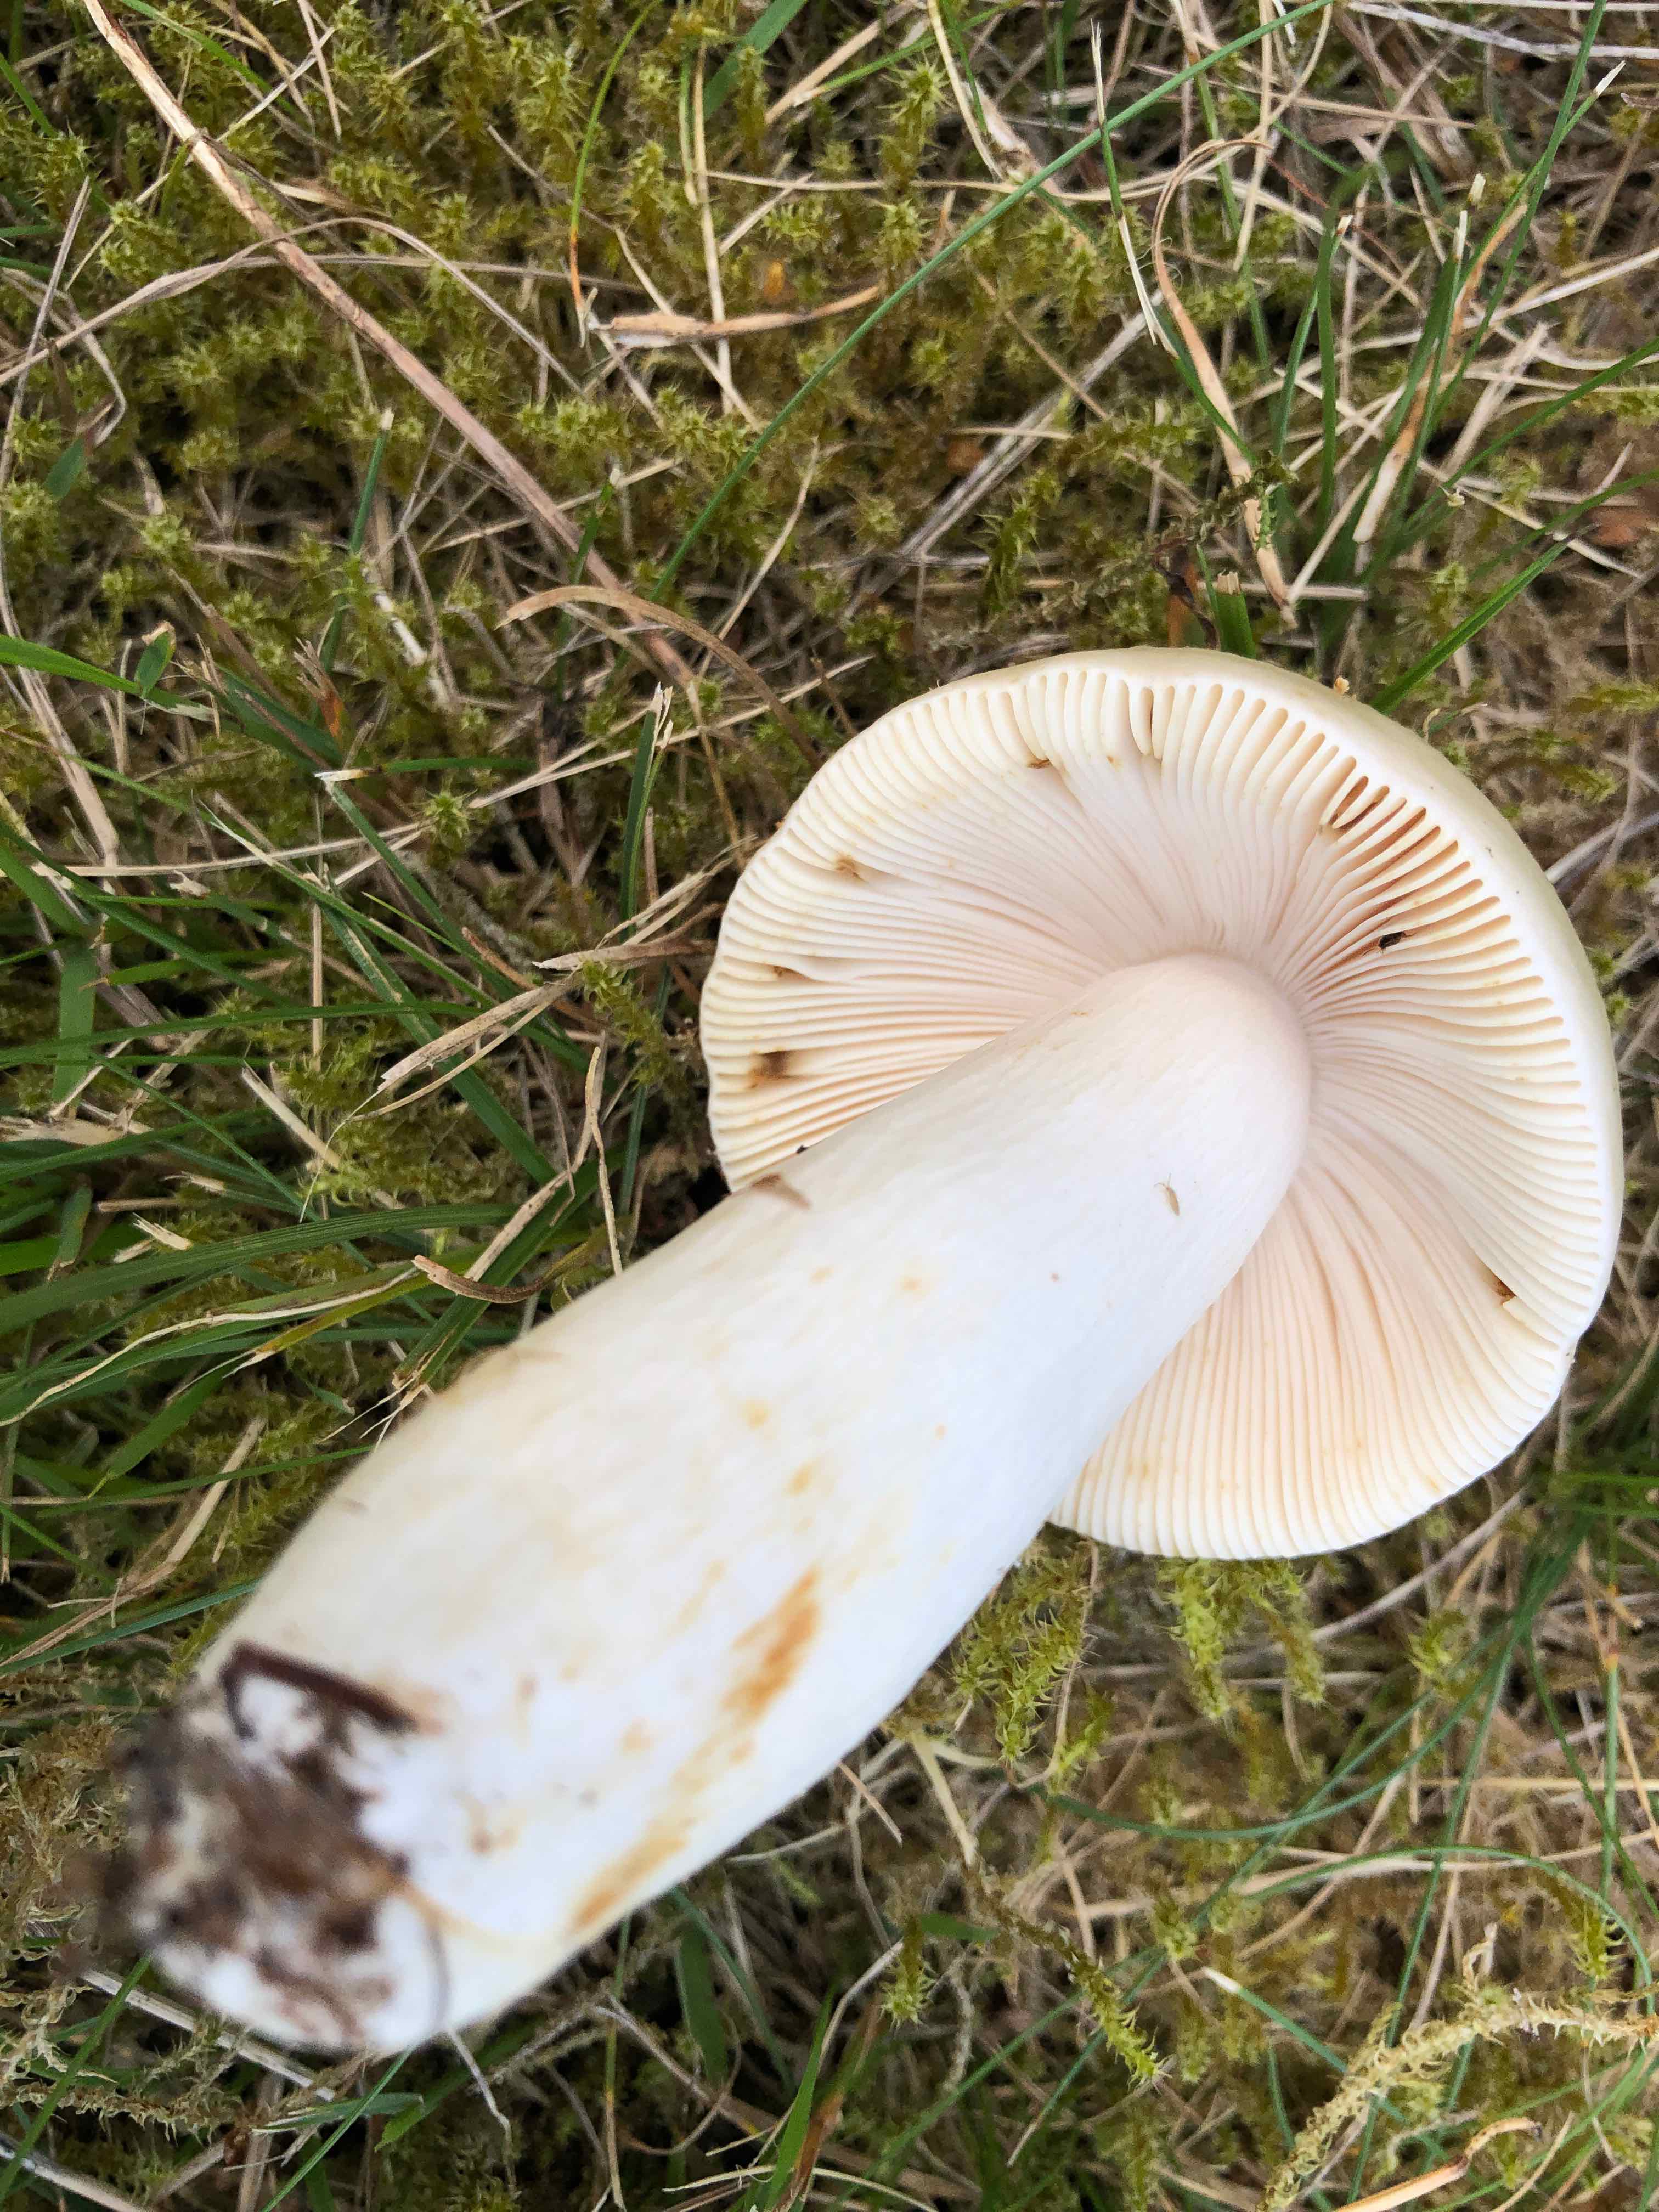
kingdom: Fungi
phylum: Basidiomycota
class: Agaricomycetes
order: Russulales
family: Russulaceae
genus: Russula
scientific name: Russula aeruginea
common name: græsgrøn skørhat
